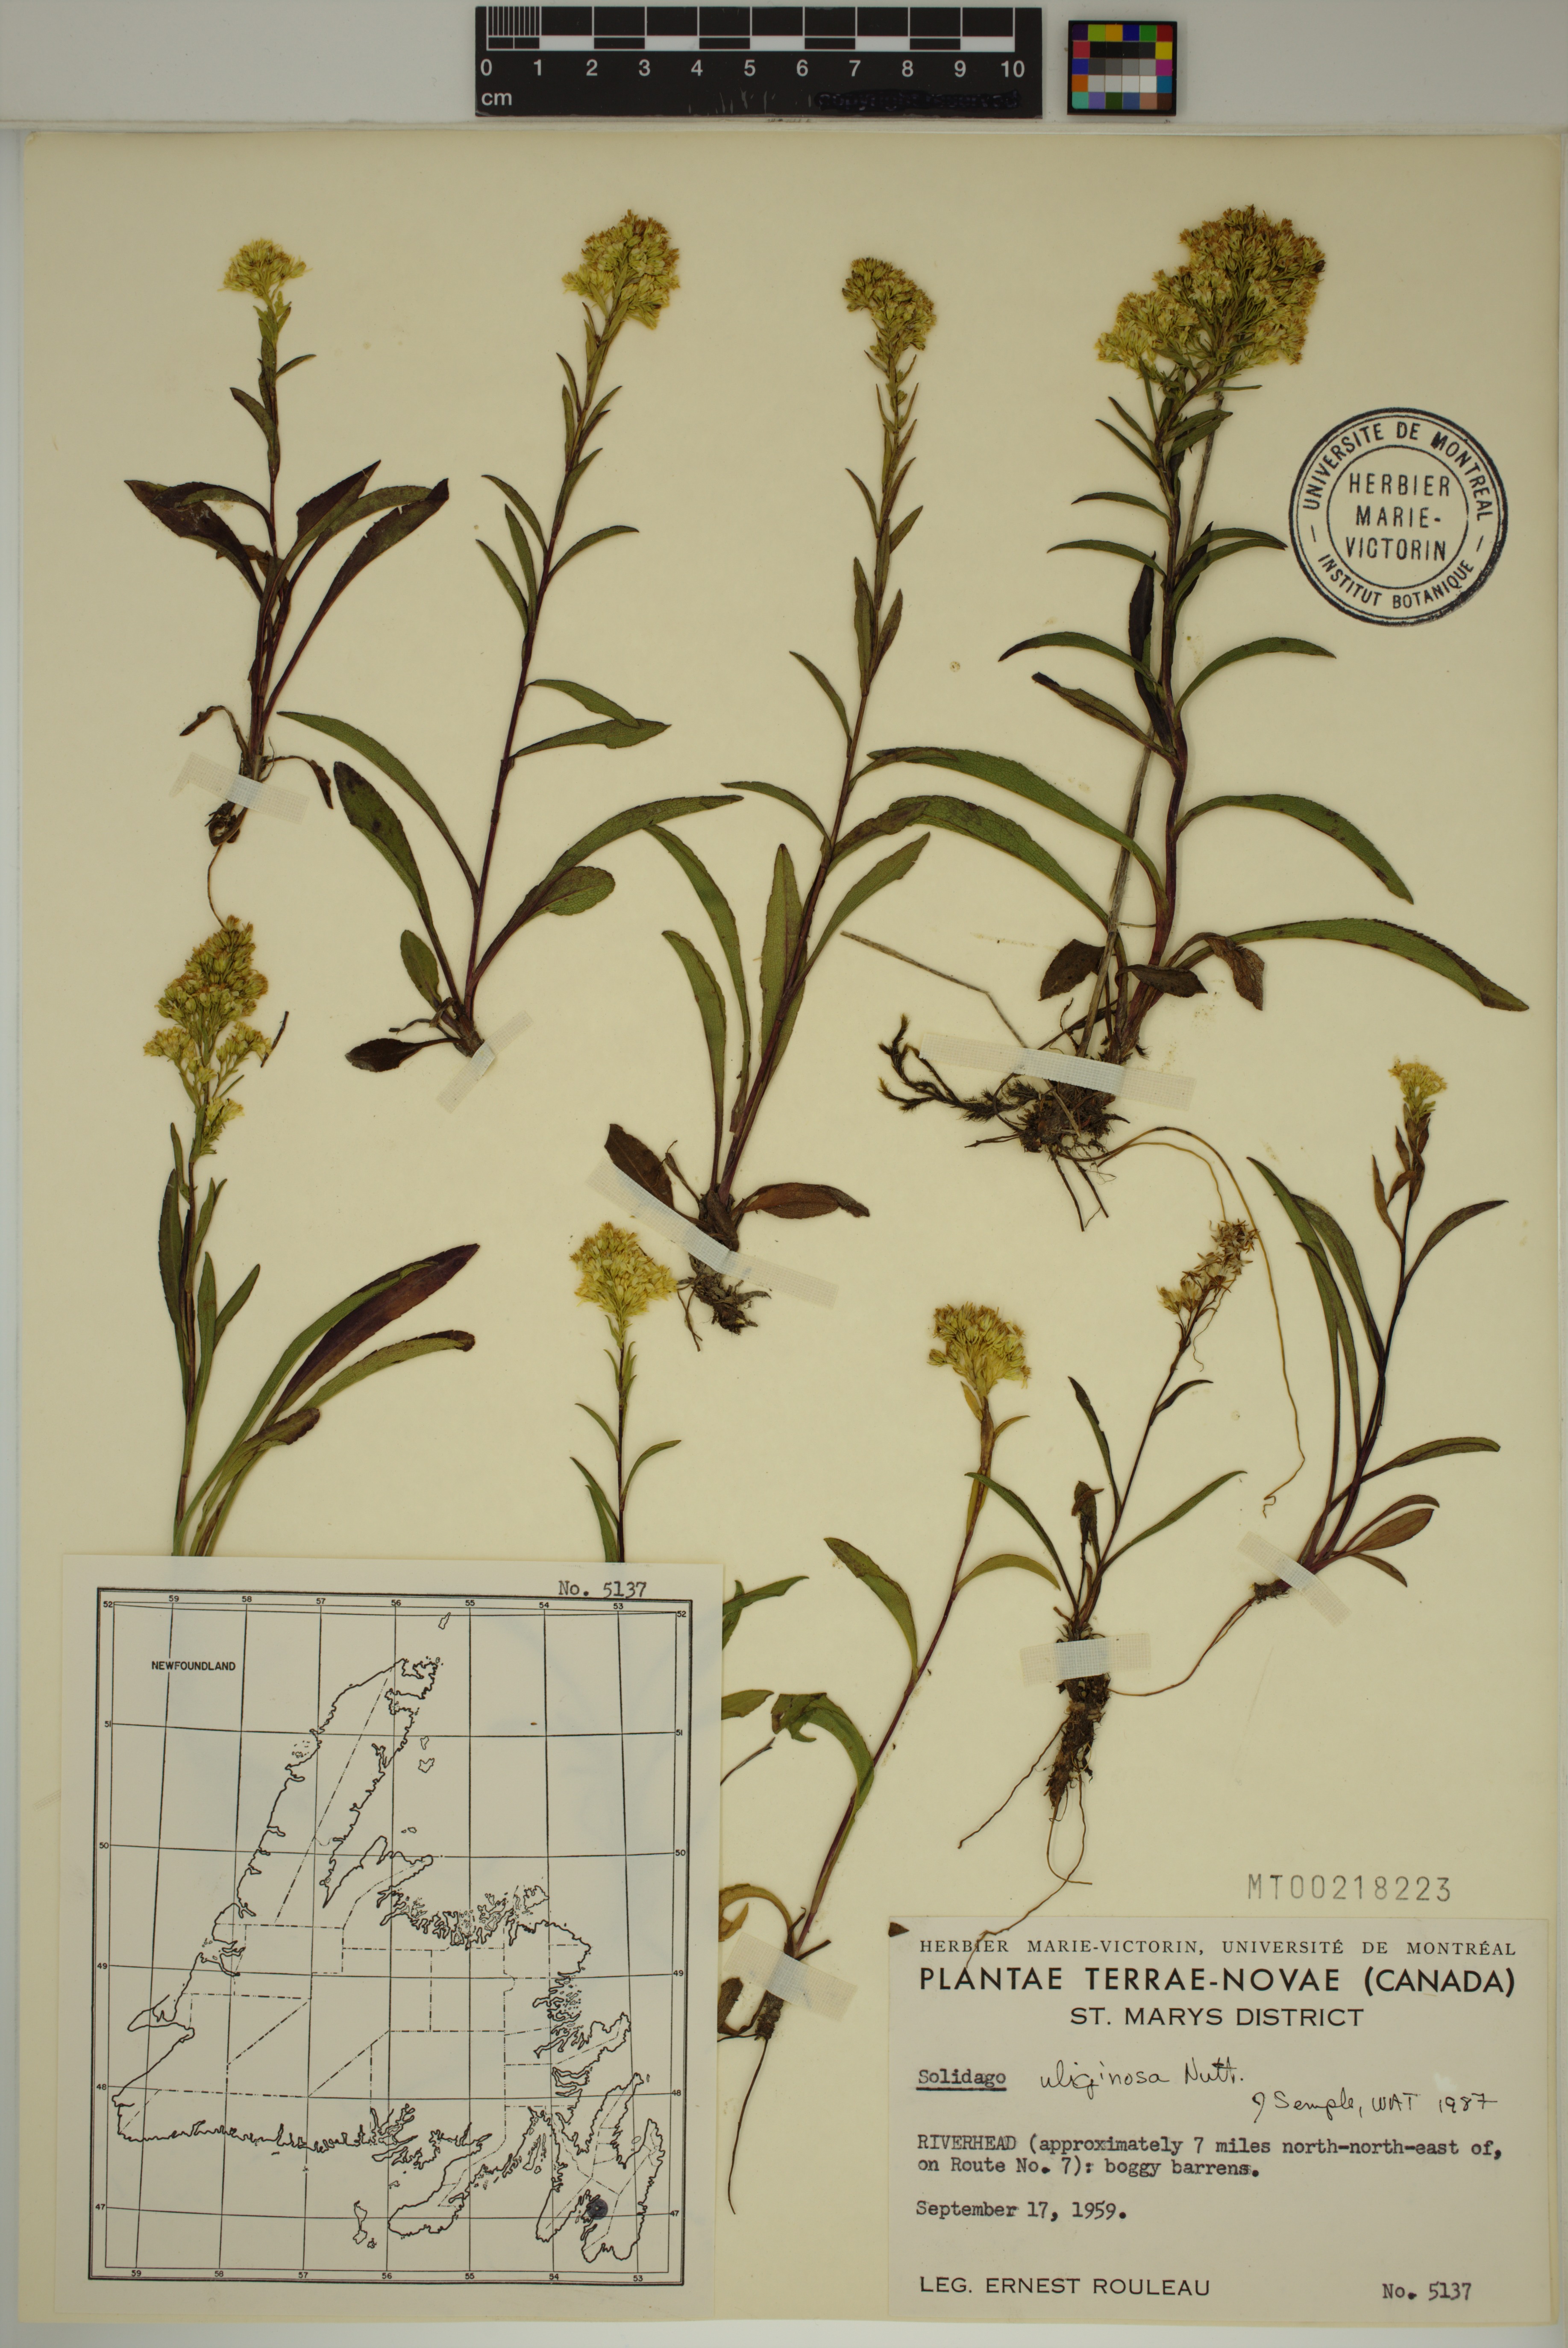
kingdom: Plantae
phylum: Tracheophyta
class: Magnoliopsida
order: Asterales
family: Asteraceae
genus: Solidago
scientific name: Solidago uliginosa
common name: Bog goldenrod
